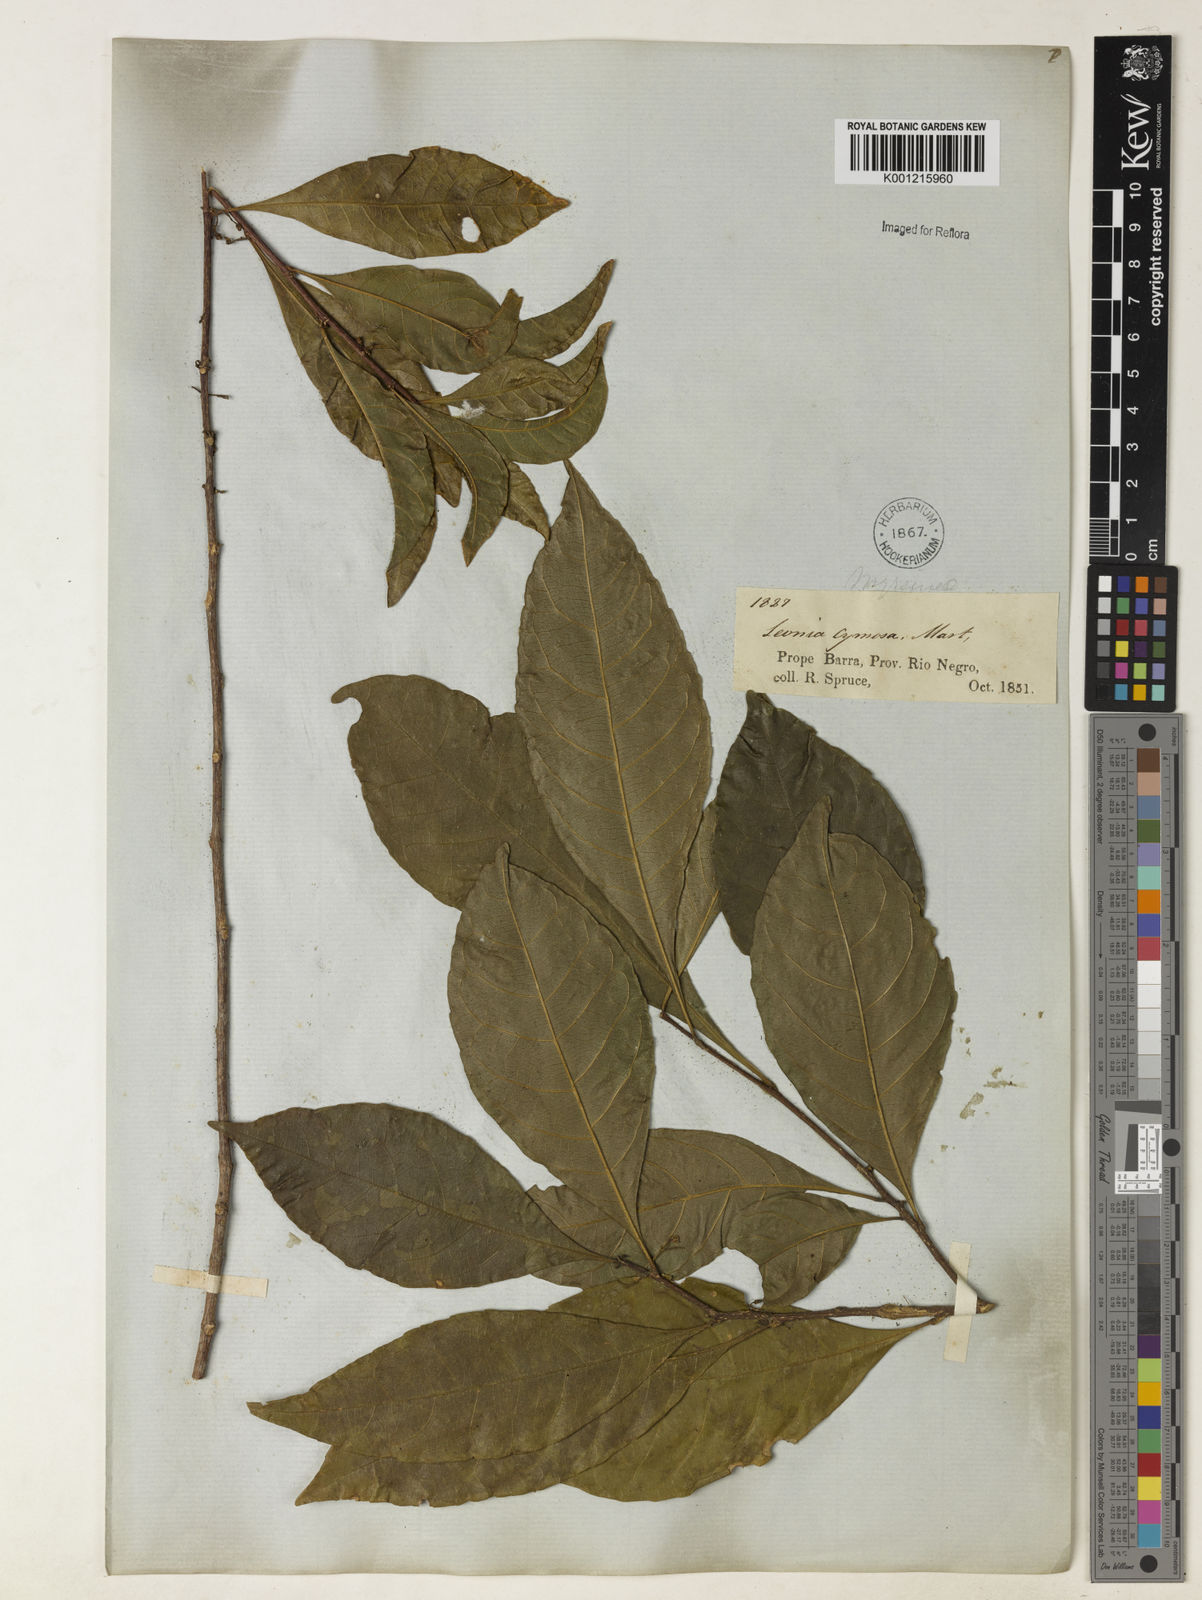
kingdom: Plantae
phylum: Tracheophyta
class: Magnoliopsida
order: Malpighiales
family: Violaceae
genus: Leonia
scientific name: Leonia cymosa
